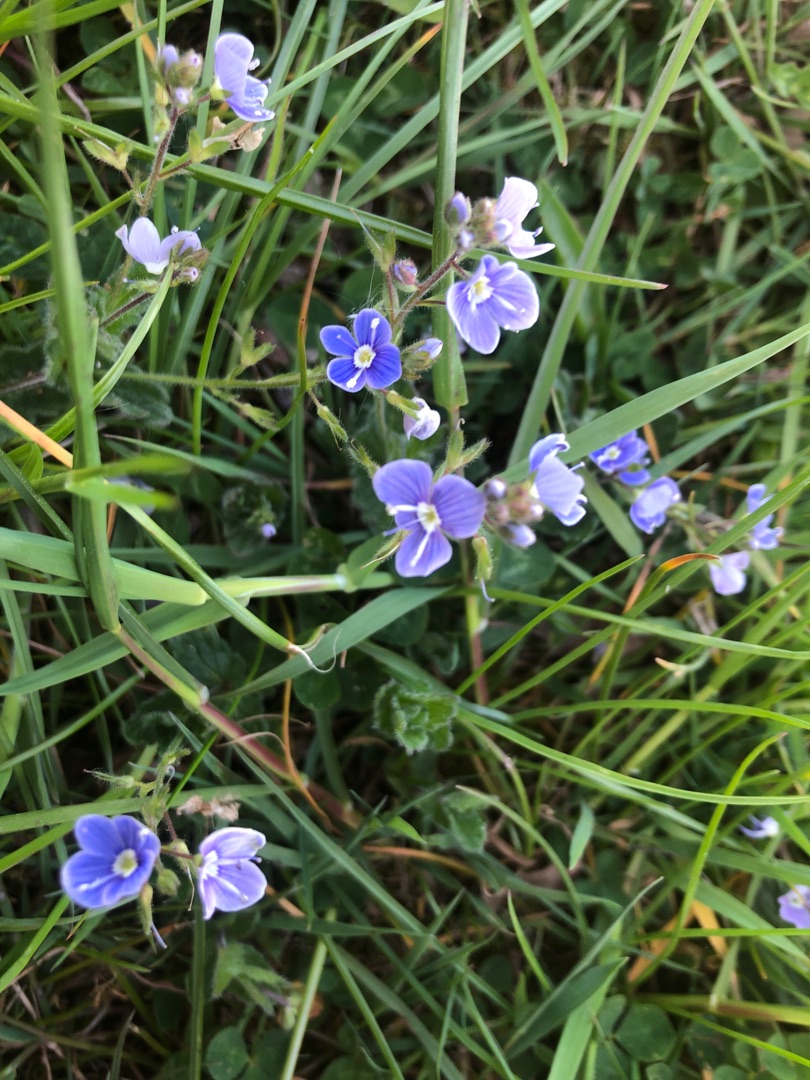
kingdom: Plantae
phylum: Tracheophyta
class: Magnoliopsida
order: Lamiales
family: Plantaginaceae
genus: Veronica
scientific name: Veronica chamaedrys
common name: Tveskægget ærenpris
